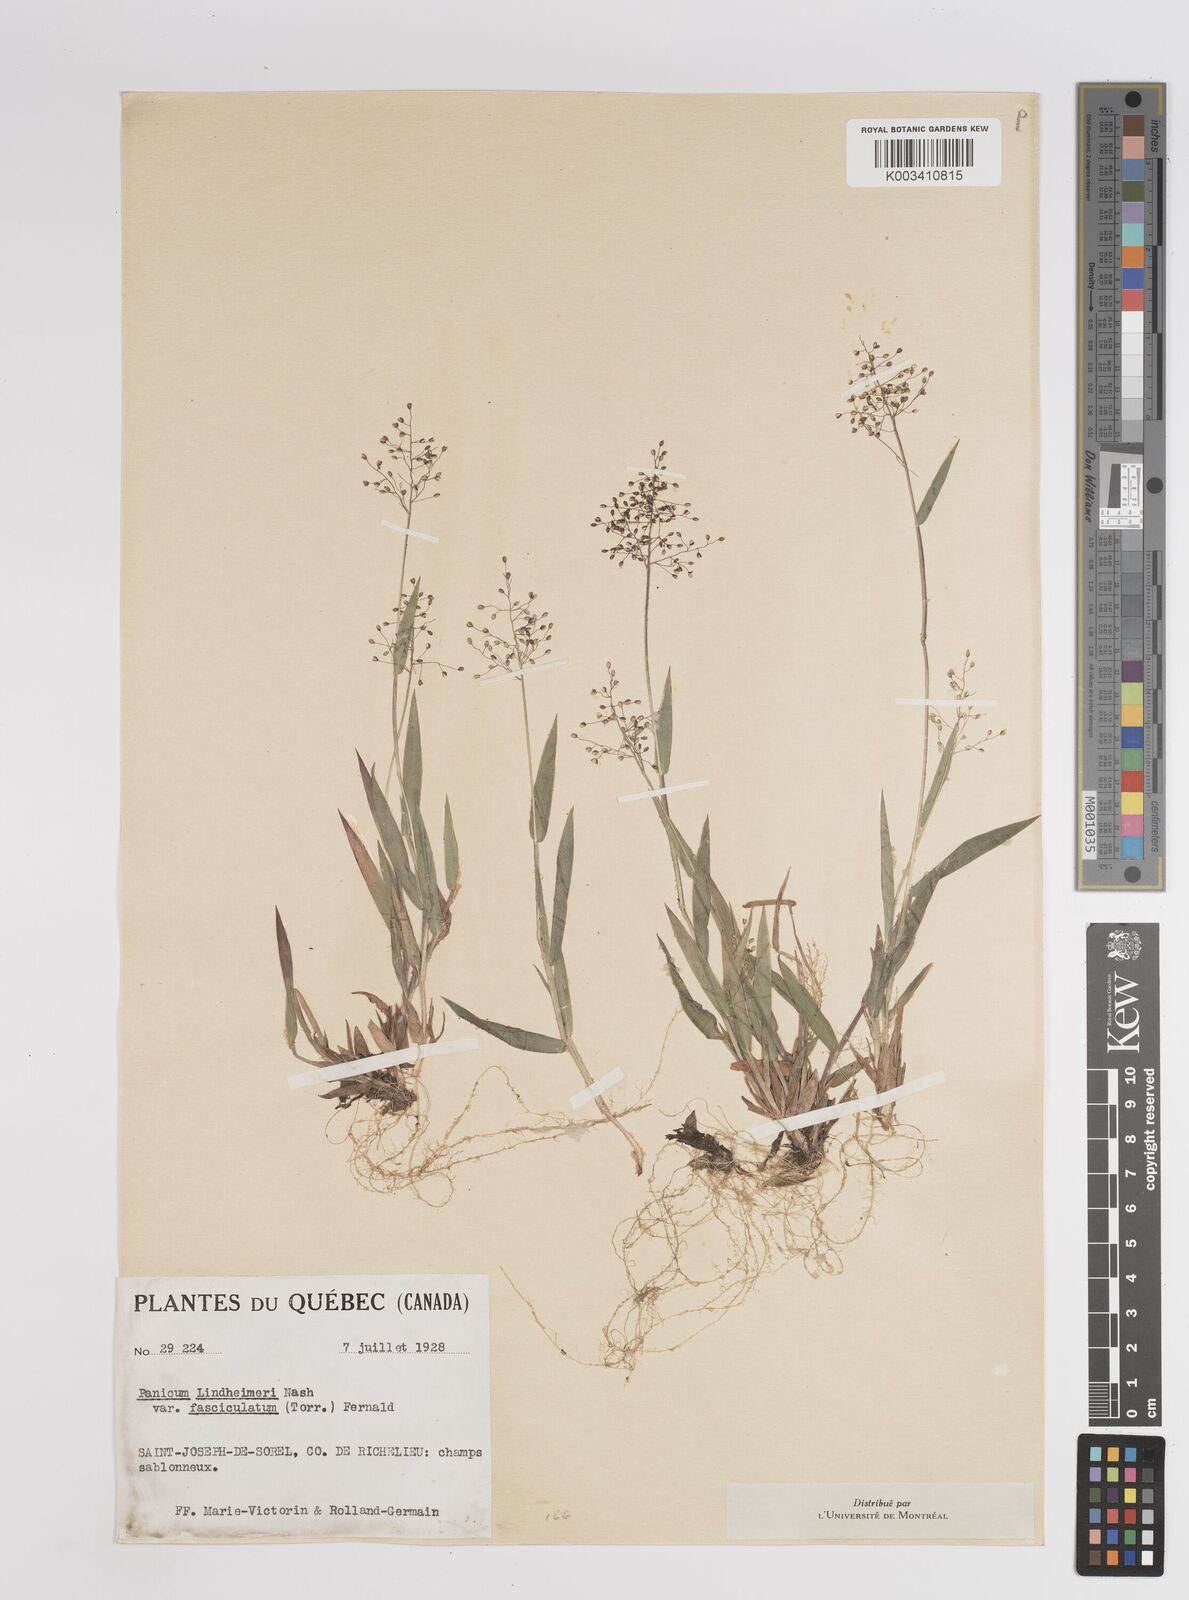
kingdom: Plantae
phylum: Tracheophyta
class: Liliopsida
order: Poales
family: Poaceae
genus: Dichanthelium
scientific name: Dichanthelium acuminatum
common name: Hairy panic grass
